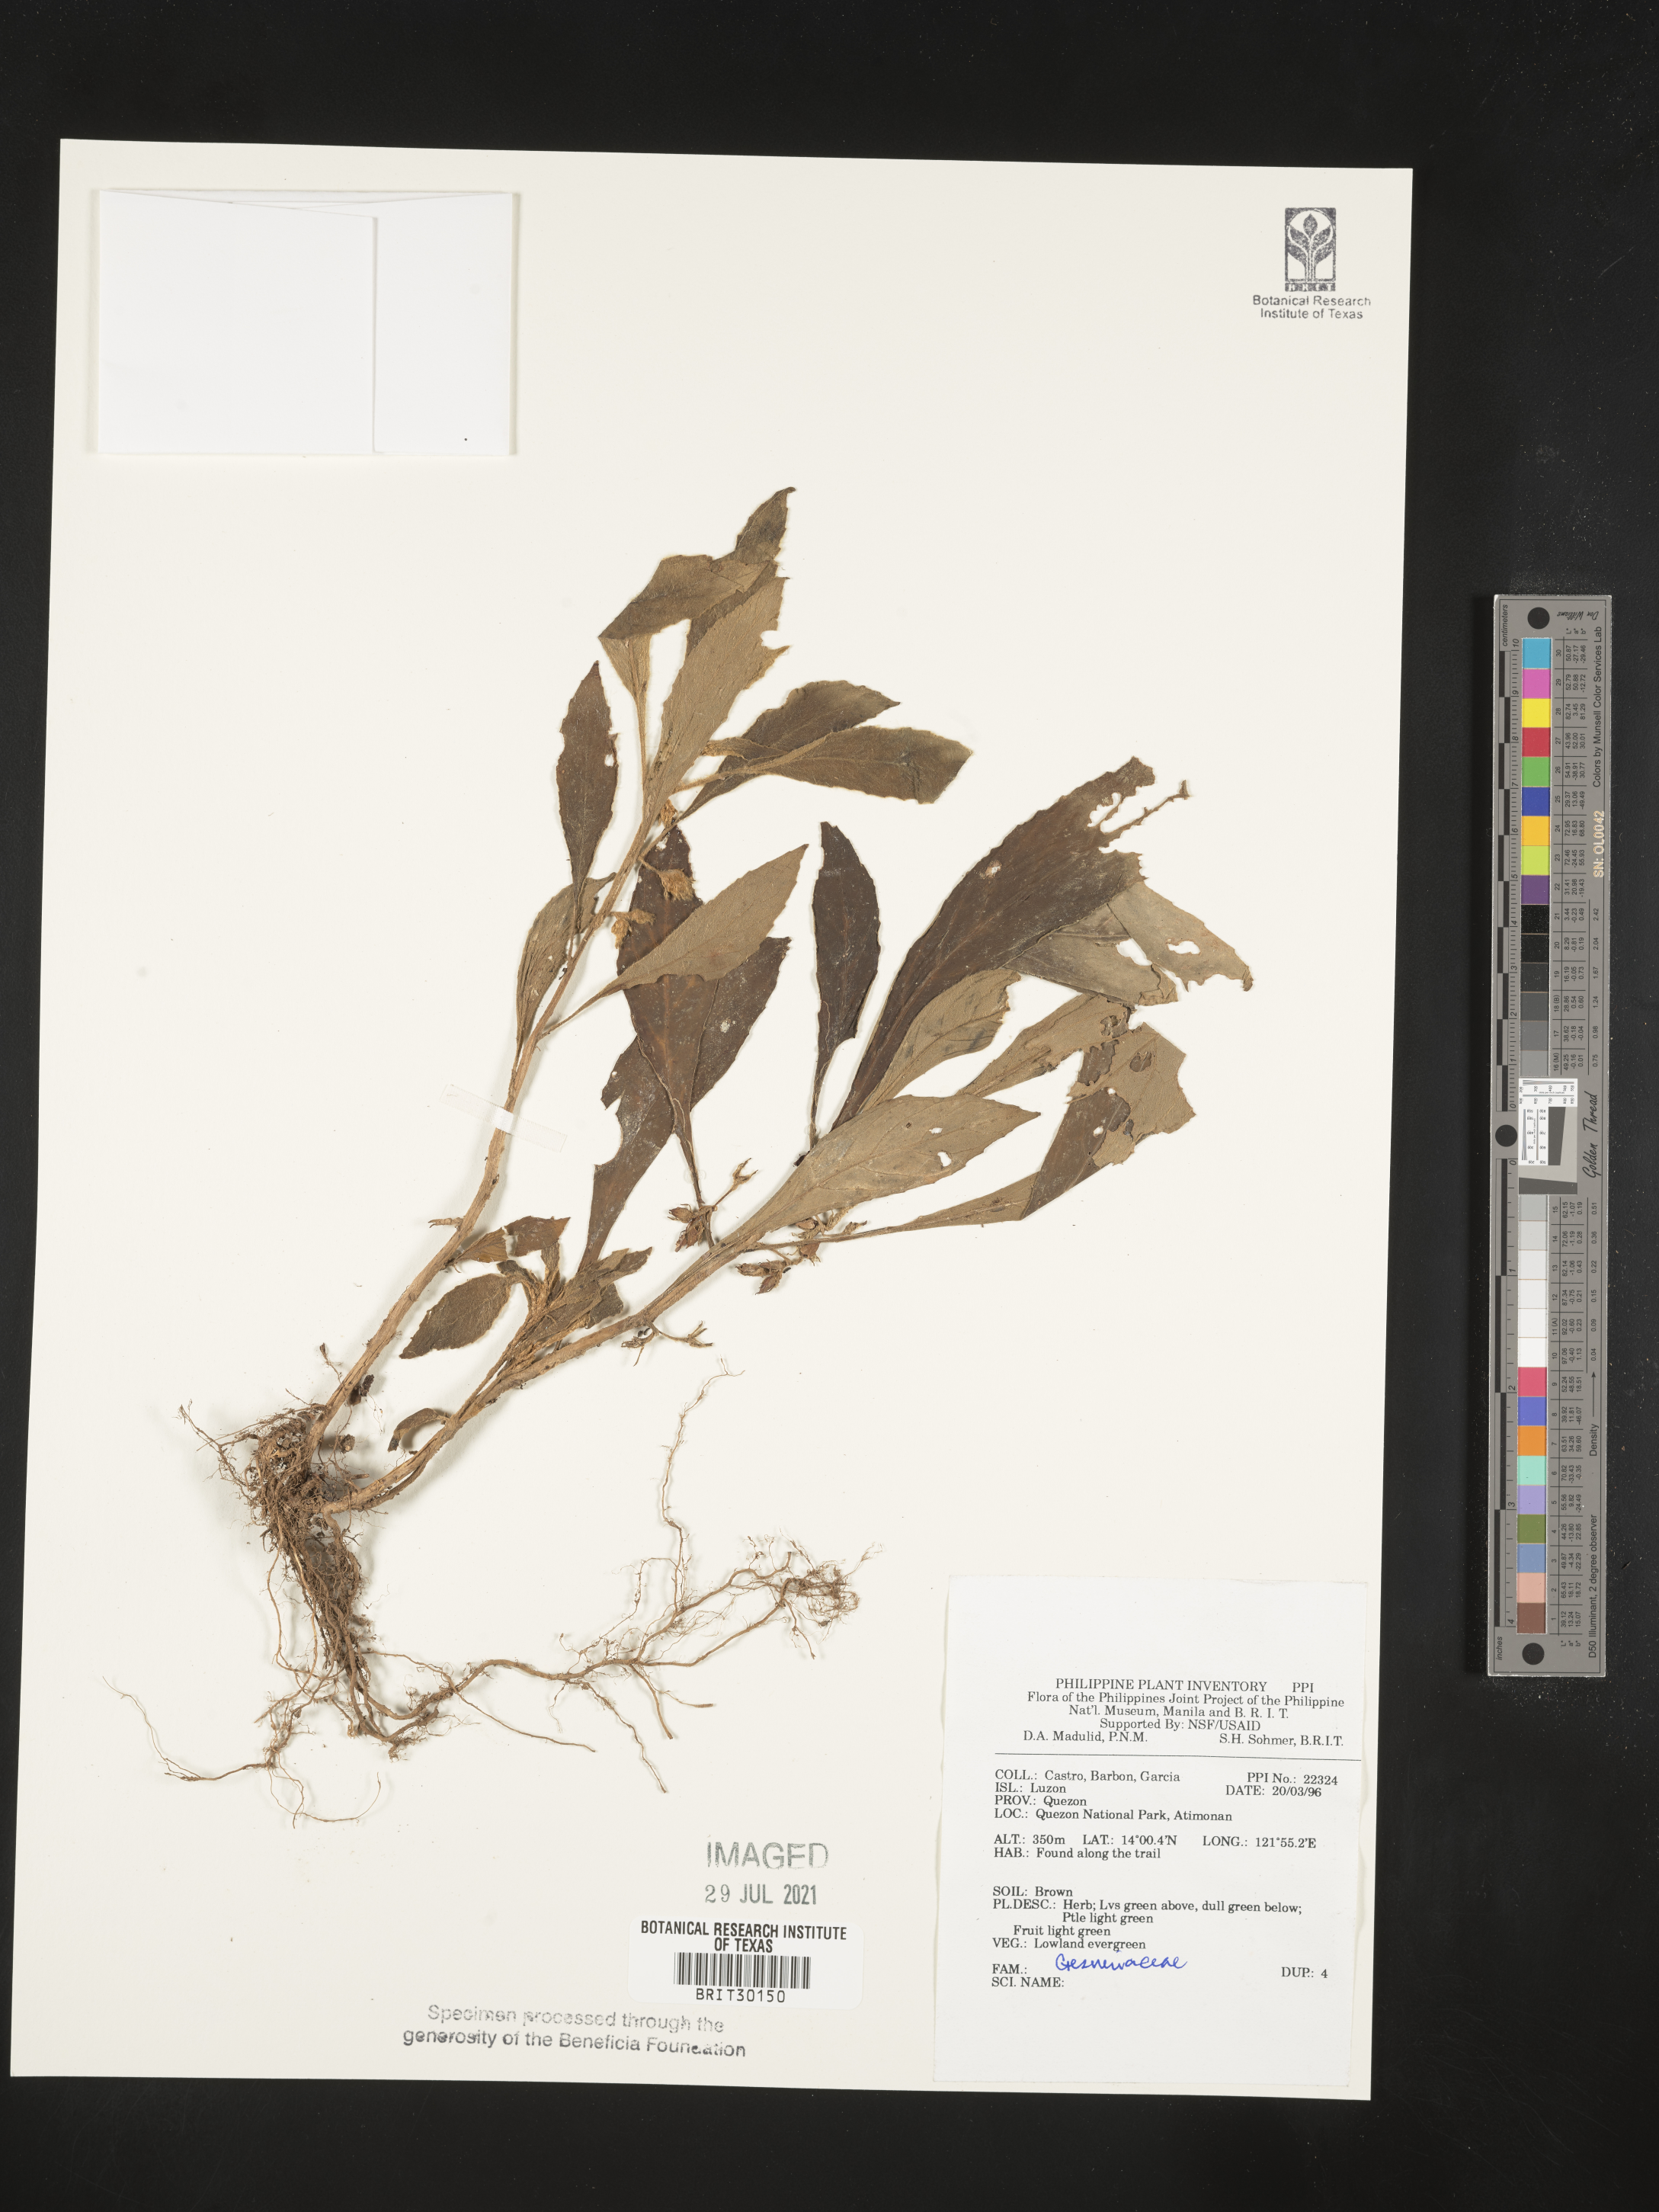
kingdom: Plantae
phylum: Tracheophyta
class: Magnoliopsida
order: Lamiales
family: Gesneriaceae
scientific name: Gesneriaceae
